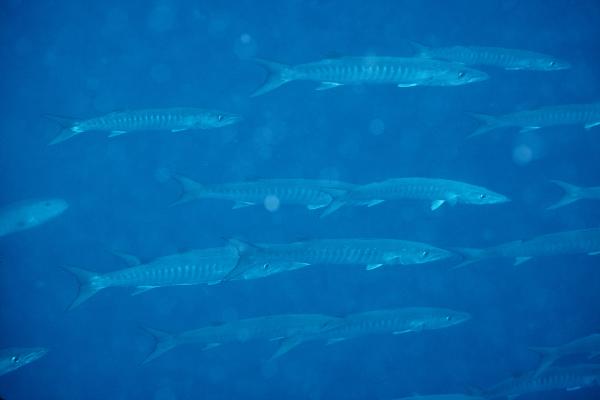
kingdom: Animalia
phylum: Chordata
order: Perciformes
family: Sphyraenidae
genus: Sphyraena
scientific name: Sphyraena qenie
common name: Blackfin barracuda
